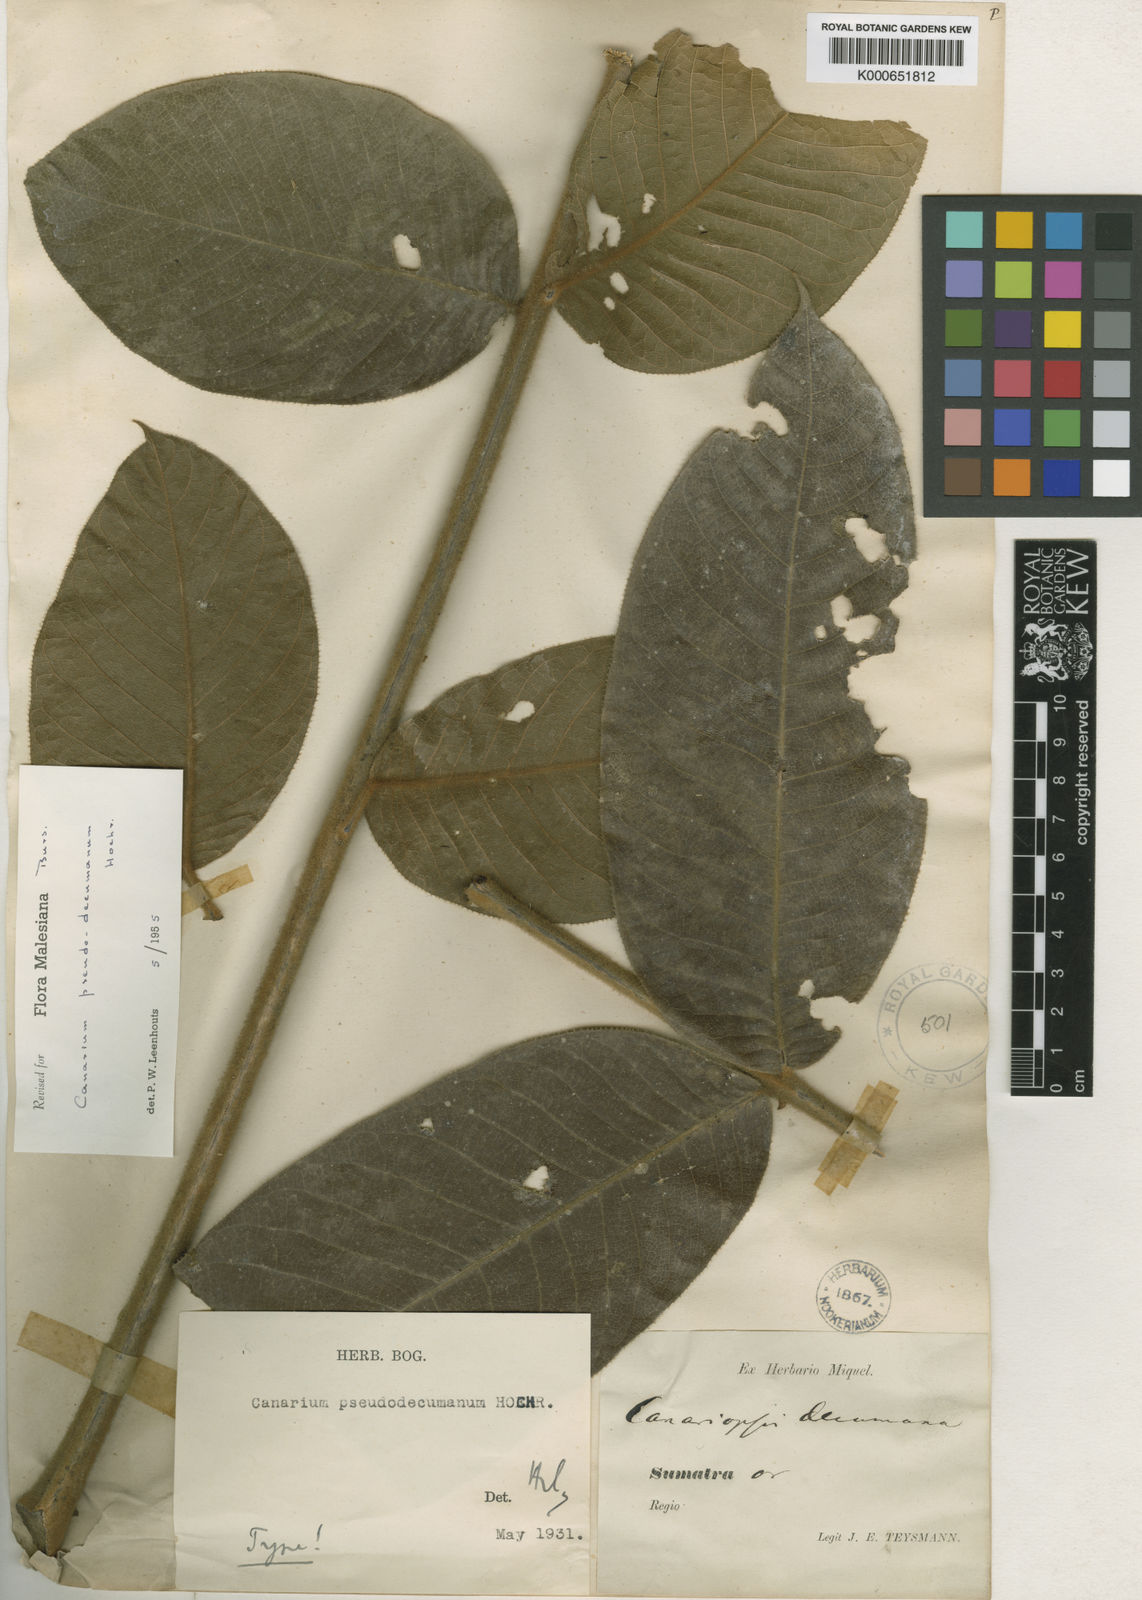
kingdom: Plantae
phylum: Tracheophyta
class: Magnoliopsida
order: Sapindales
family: Burseraceae
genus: Canarium
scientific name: Canarium pseudodecumanum
